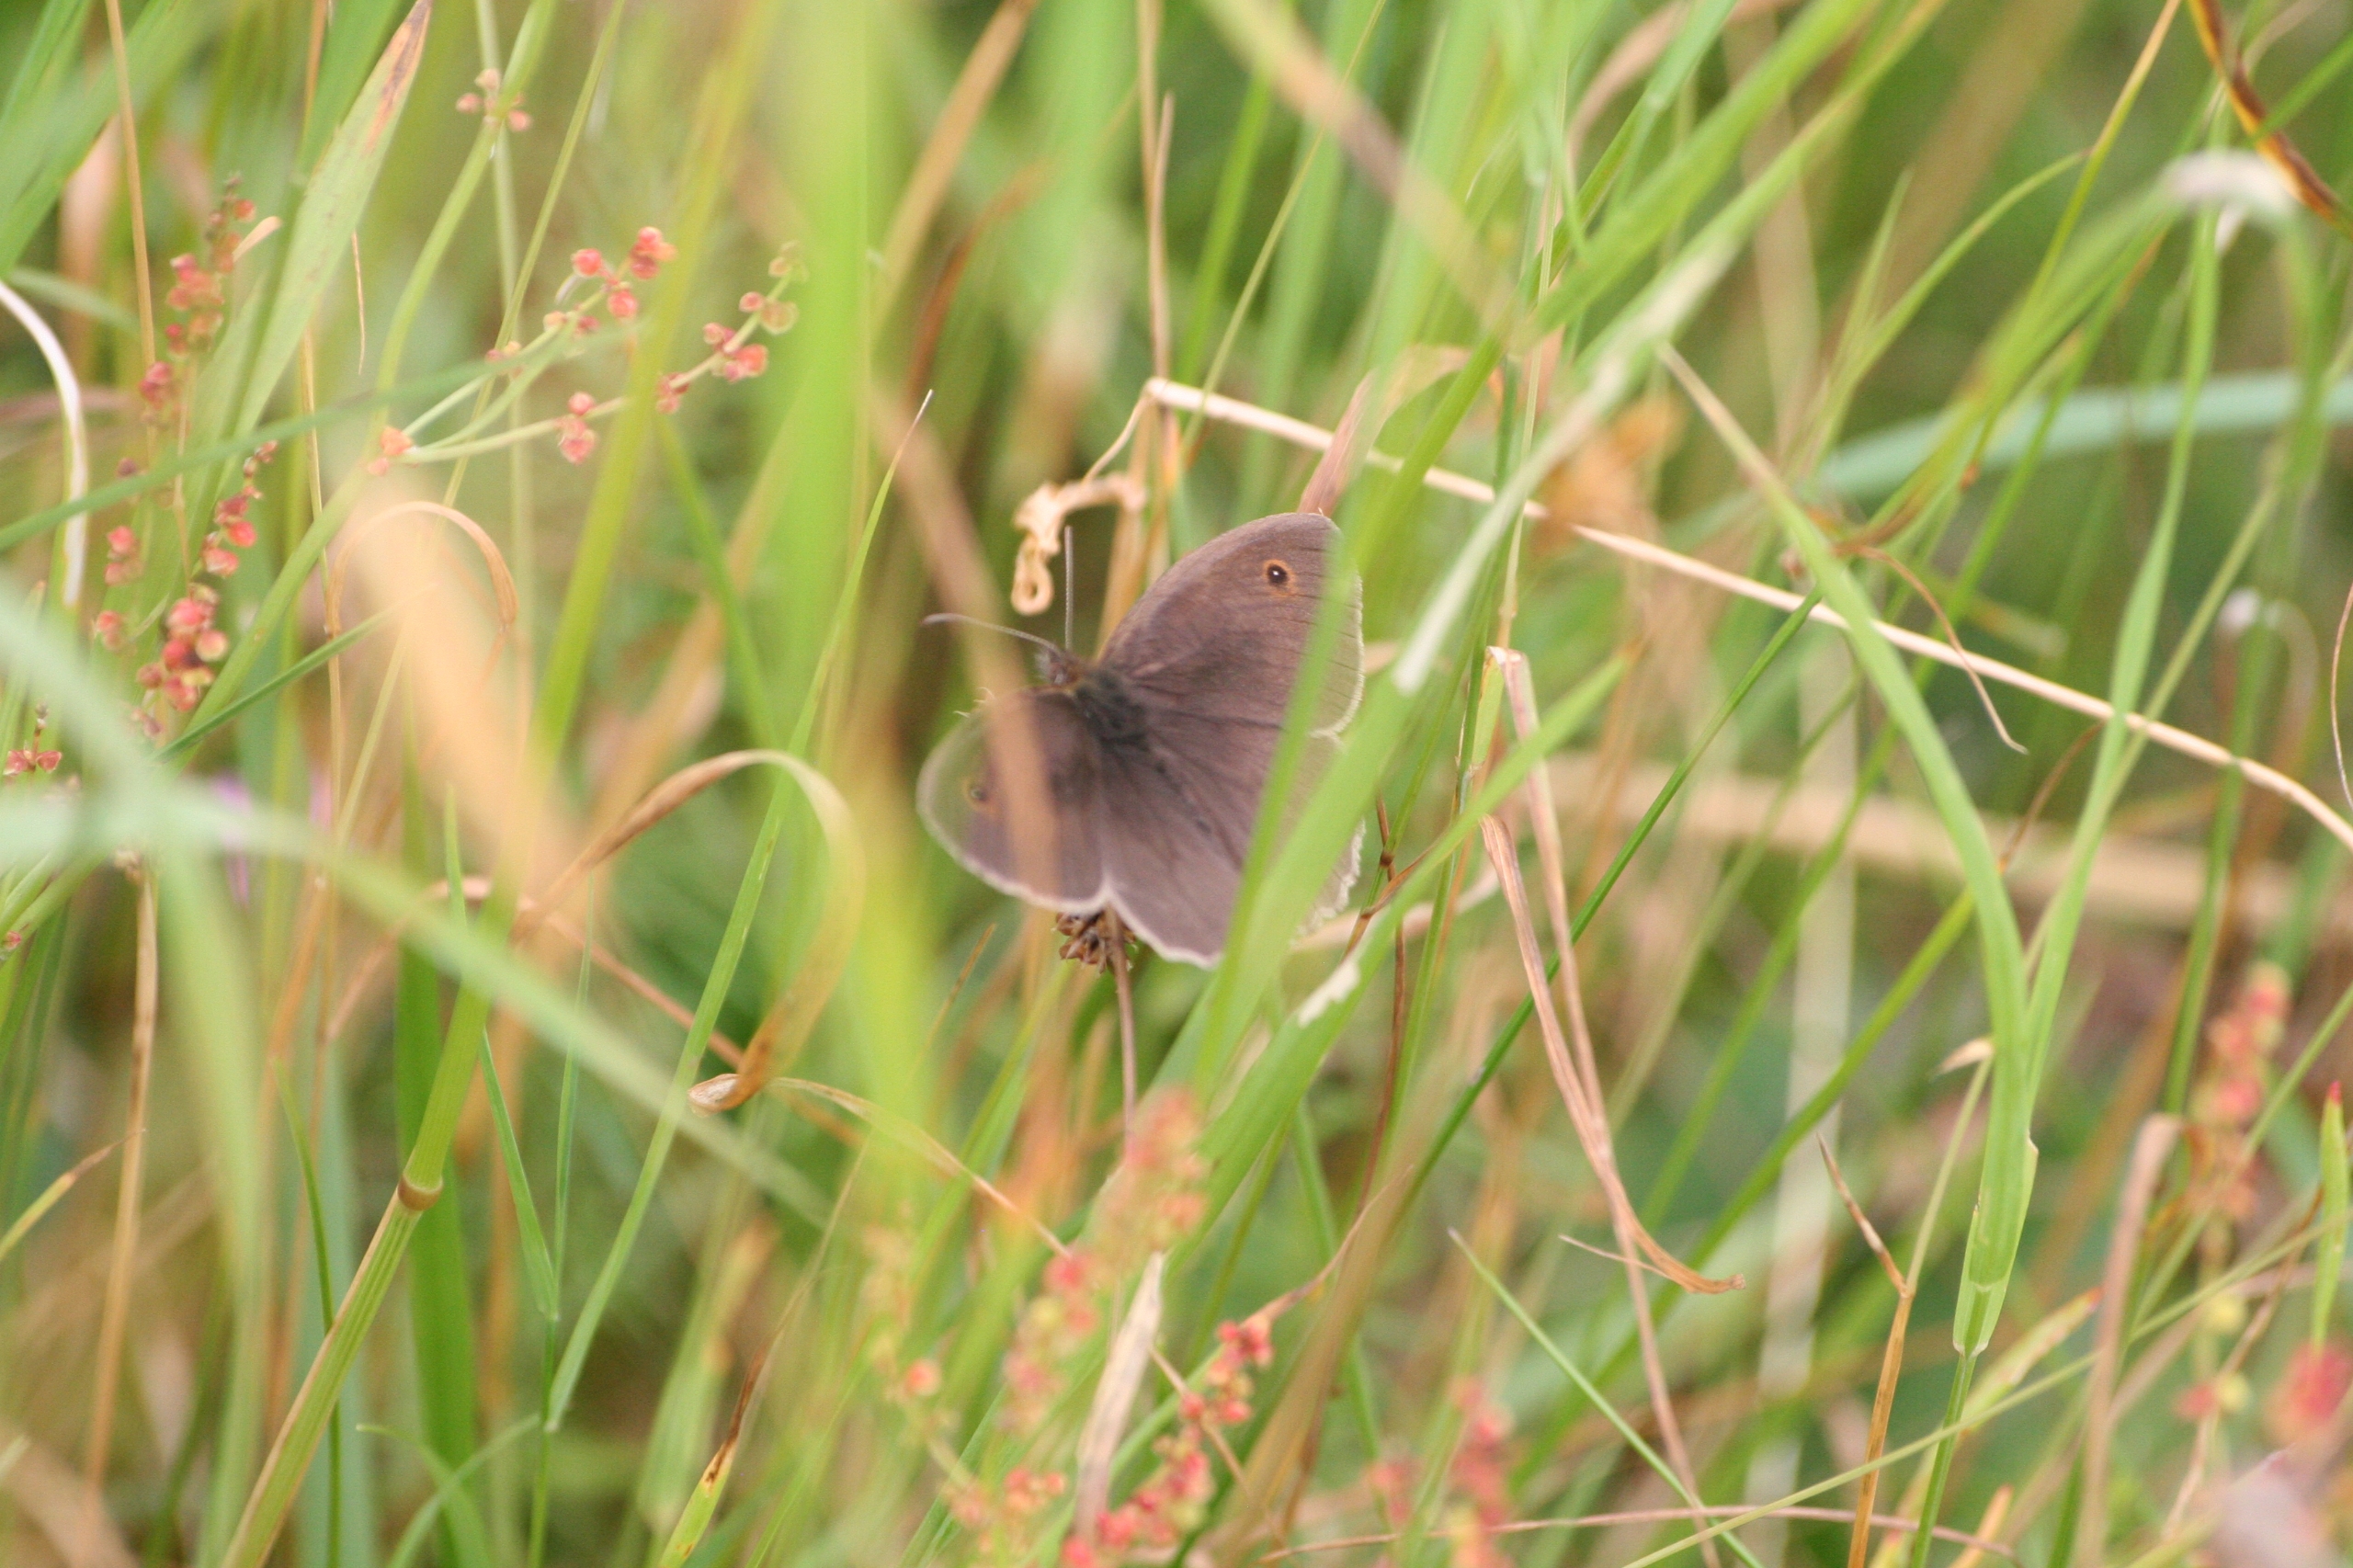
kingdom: Animalia
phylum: Arthropoda
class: Insecta
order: Lepidoptera
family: Nymphalidae
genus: Maniola
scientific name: Maniola jurtina
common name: Græsrandøje
